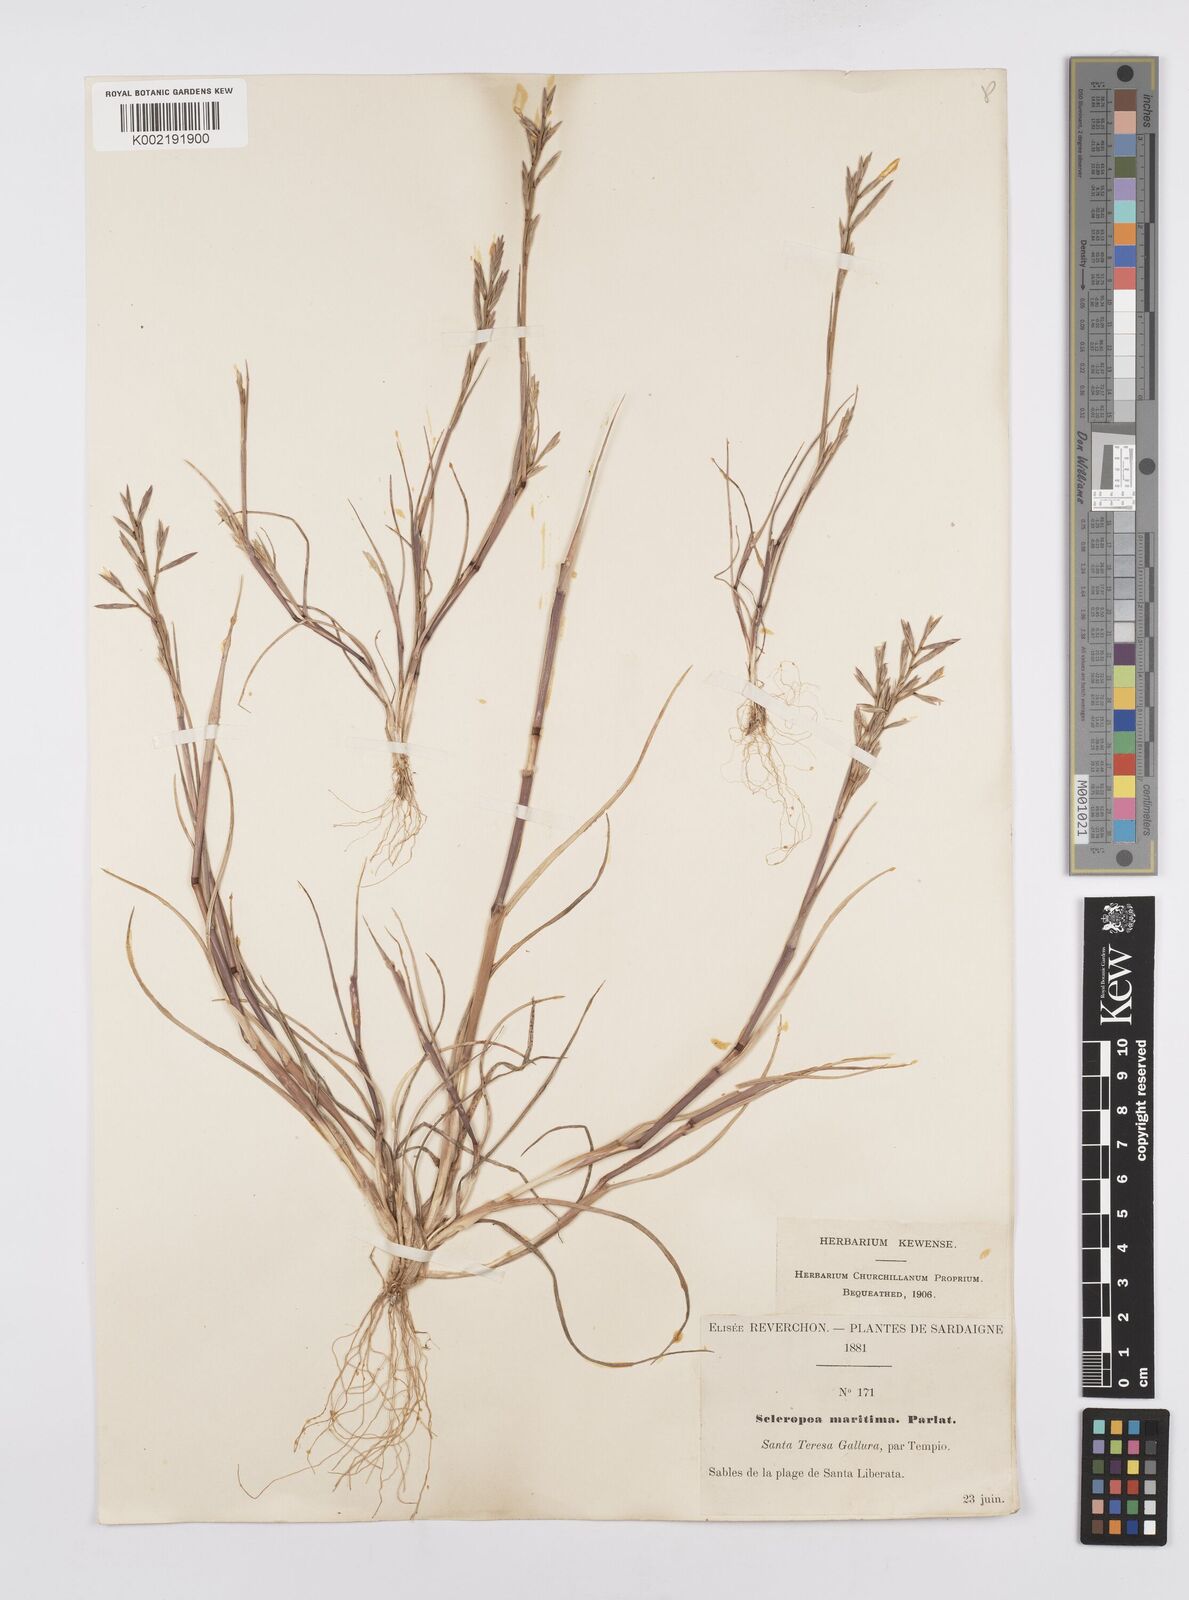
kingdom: Plantae
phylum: Tracheophyta
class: Liliopsida
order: Poales
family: Poaceae
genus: Cutandia
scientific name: Cutandia maritima
